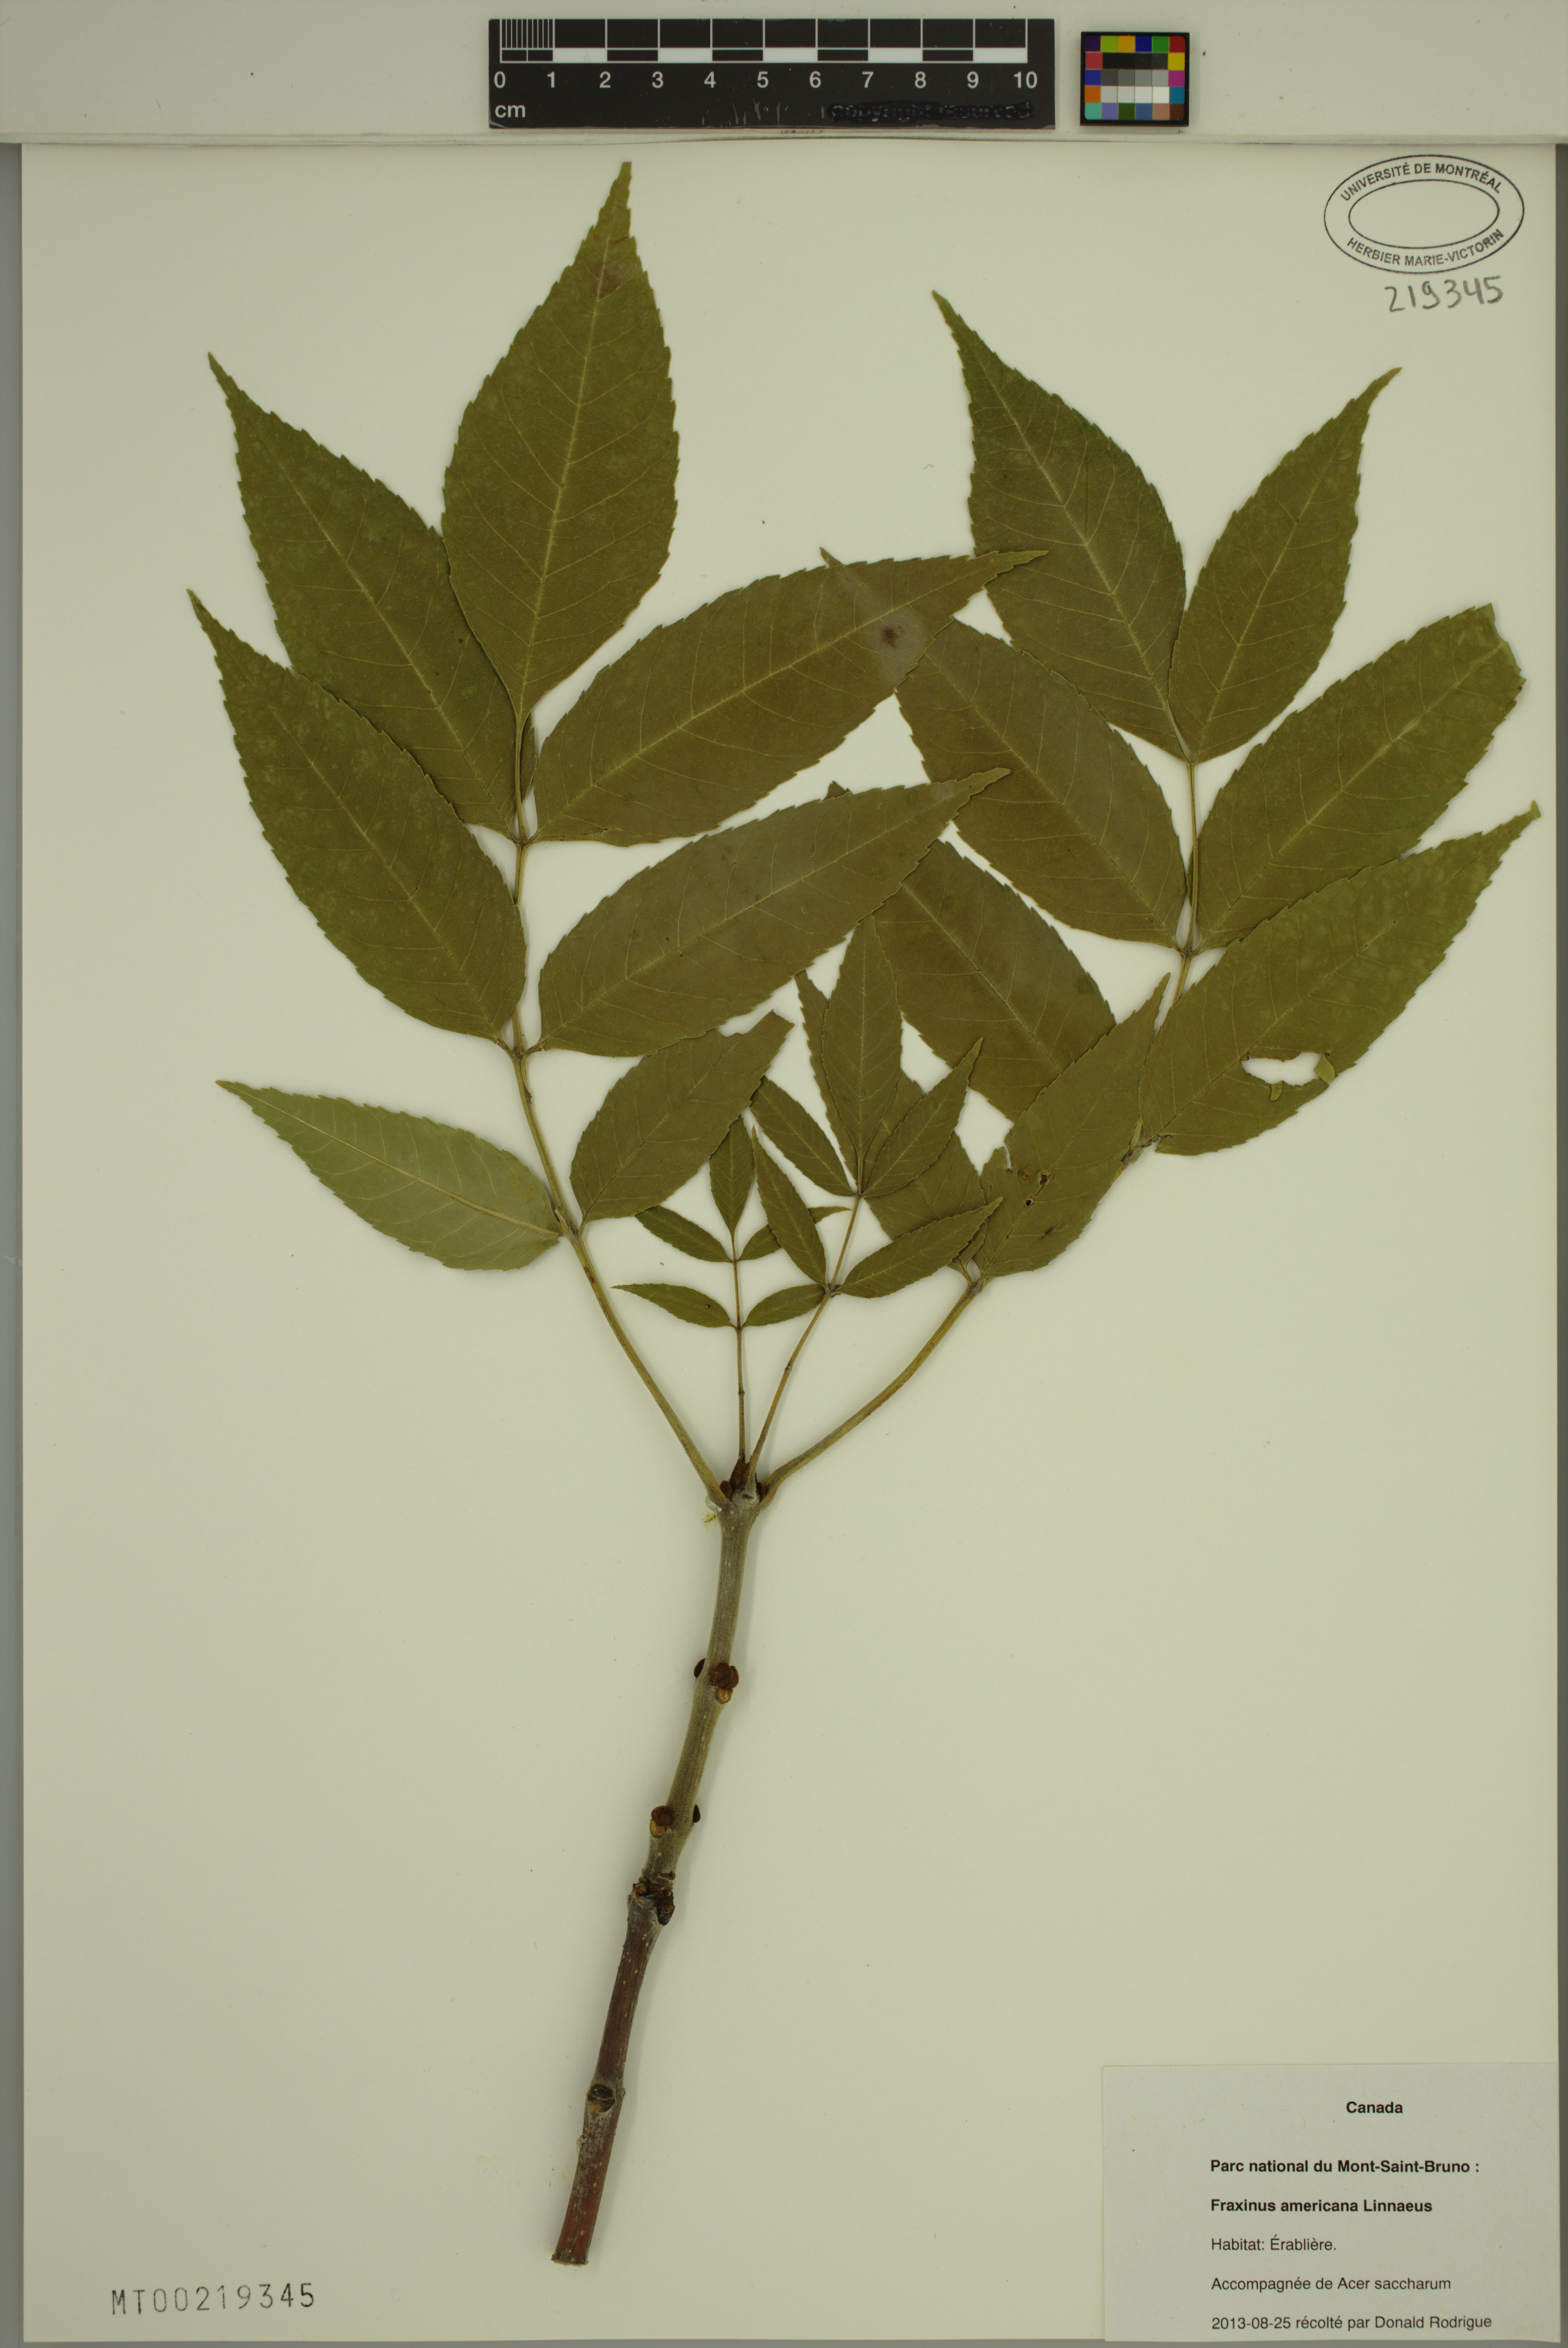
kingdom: Plantae
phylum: Tracheophyta
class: Magnoliopsida
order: Lamiales
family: Oleaceae
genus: Fraxinus
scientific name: Fraxinus pennsylvanica
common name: Green ash
